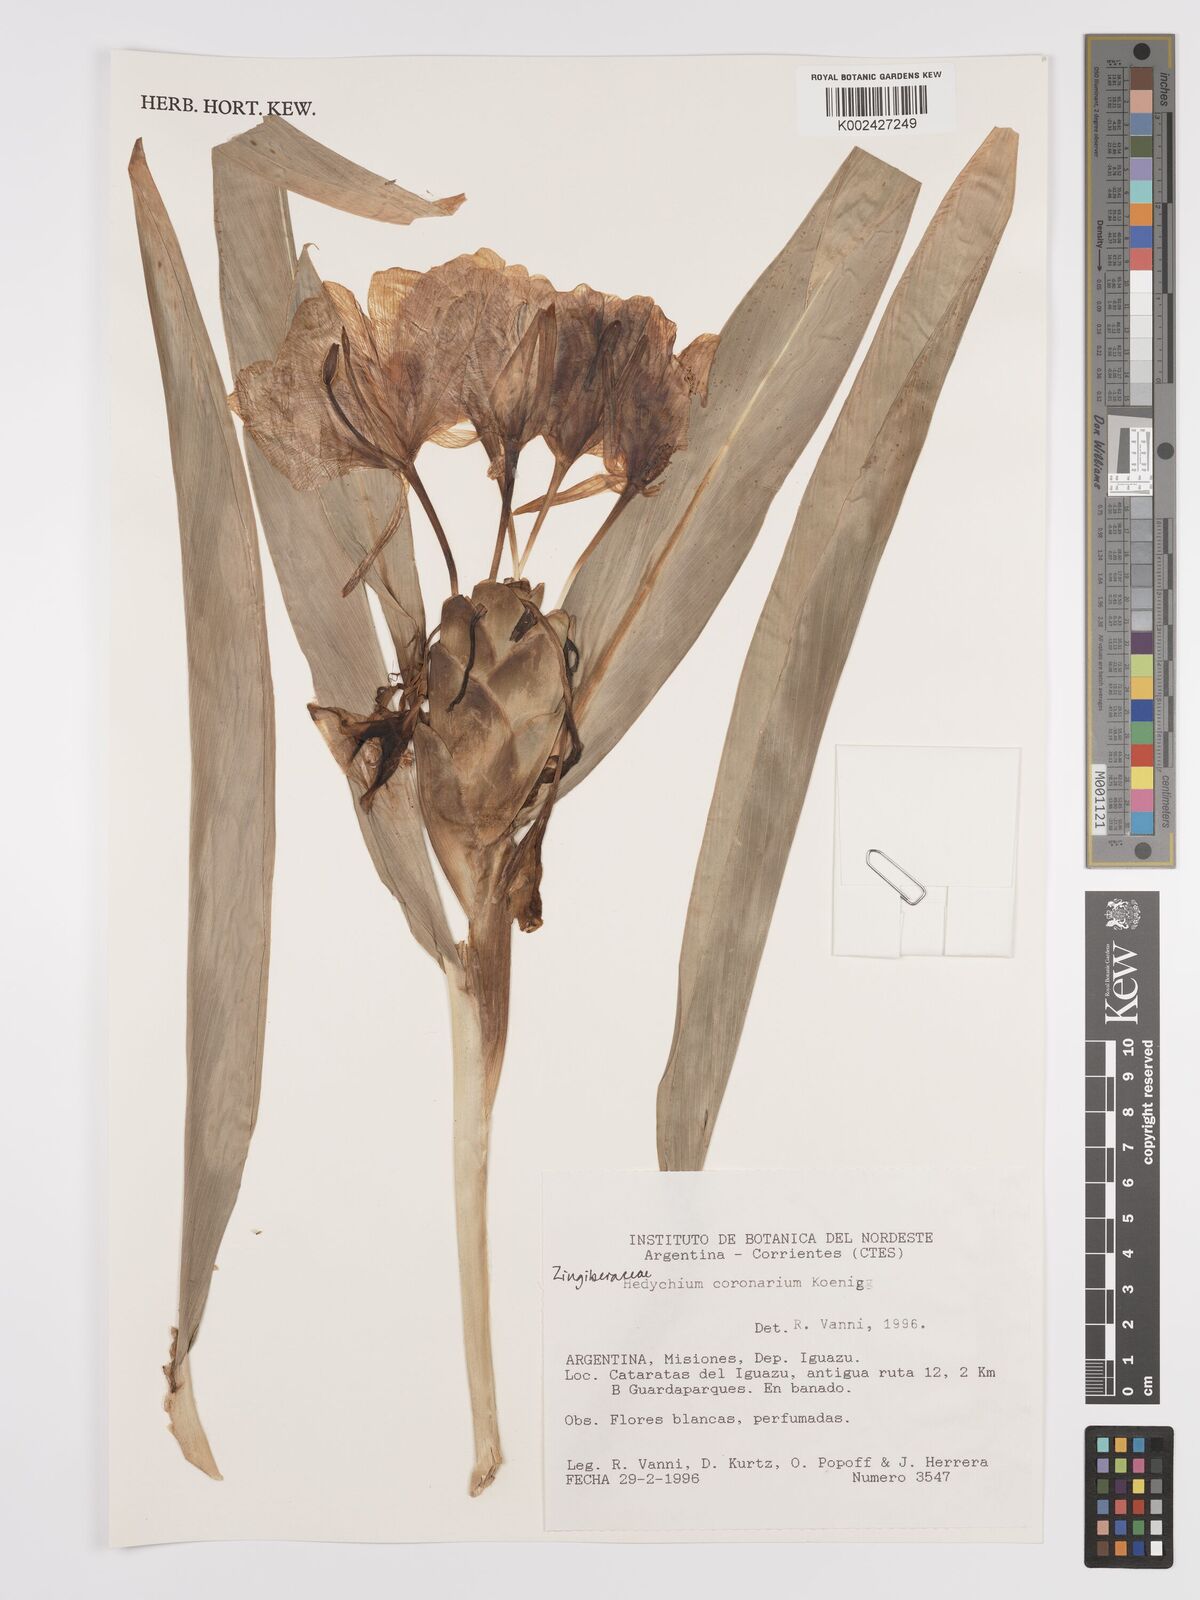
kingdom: Plantae
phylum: Tracheophyta
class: Liliopsida
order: Zingiberales
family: Zingiberaceae
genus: Hedychium
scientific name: Hedychium coronarium
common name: White garland-lily
